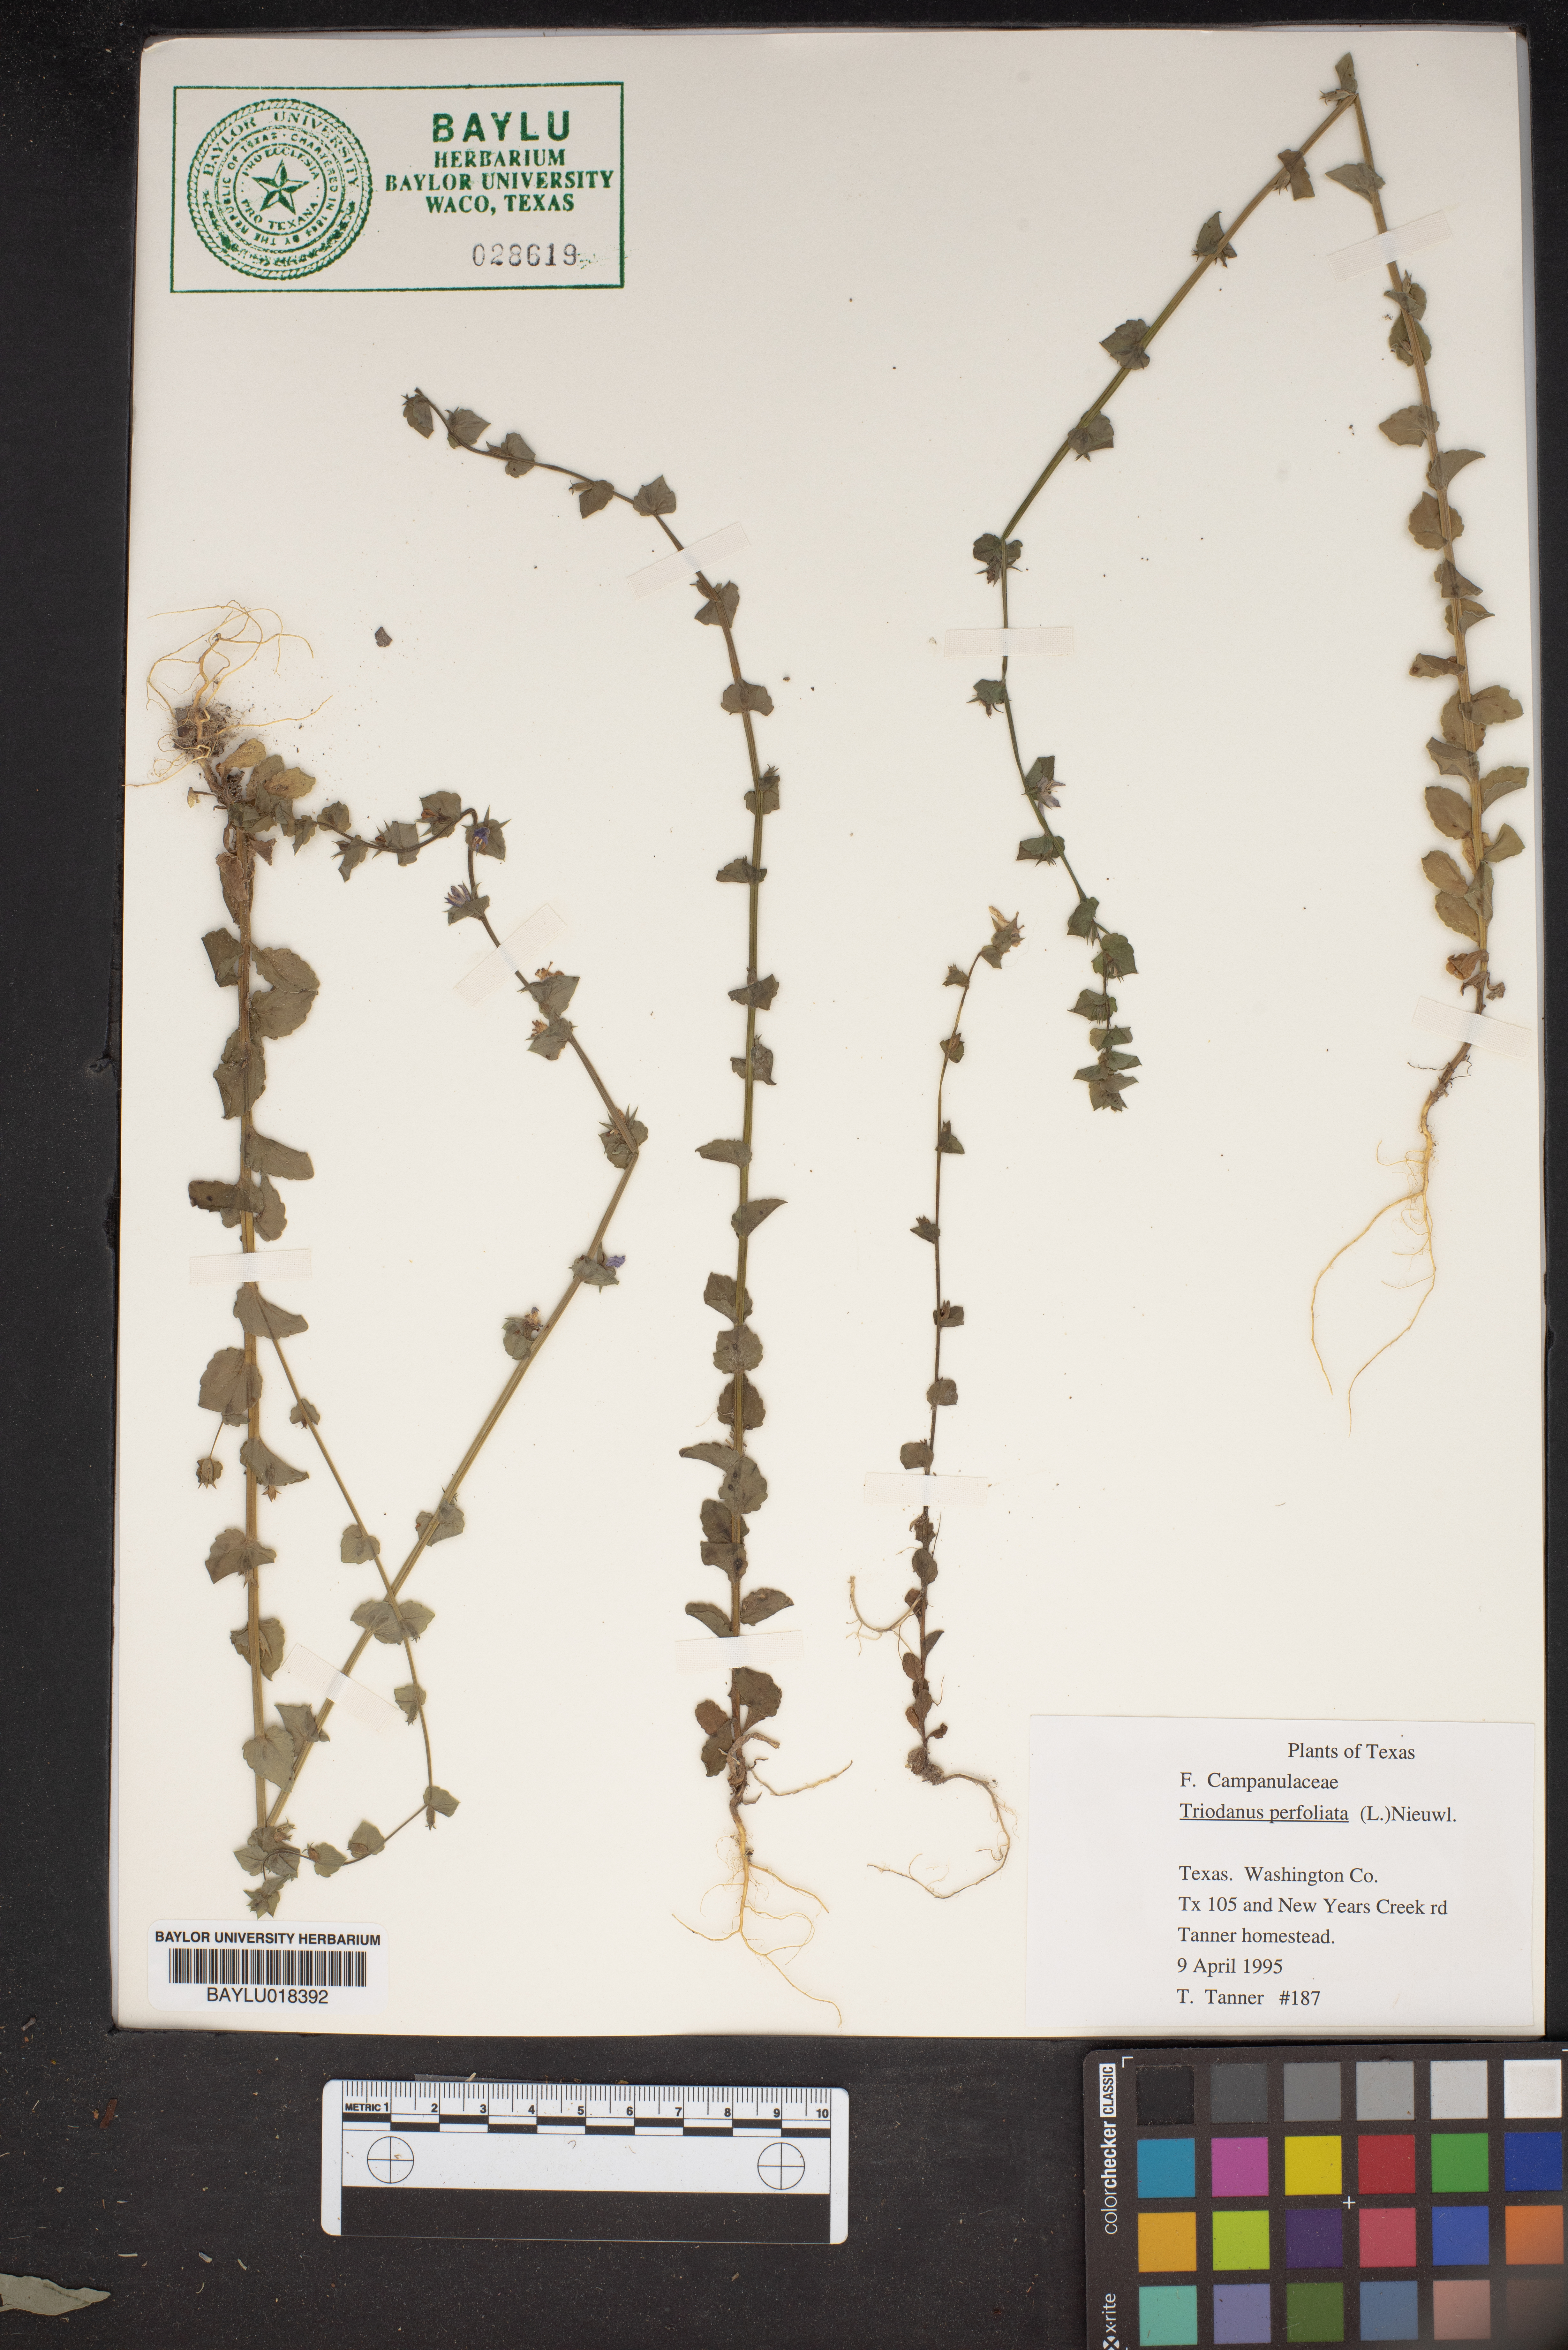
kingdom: Plantae
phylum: Tracheophyta
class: Magnoliopsida
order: Asterales
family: Campanulaceae
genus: Triodanis
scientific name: Triodanis perfoliata
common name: Clasping venus' looking-glass
